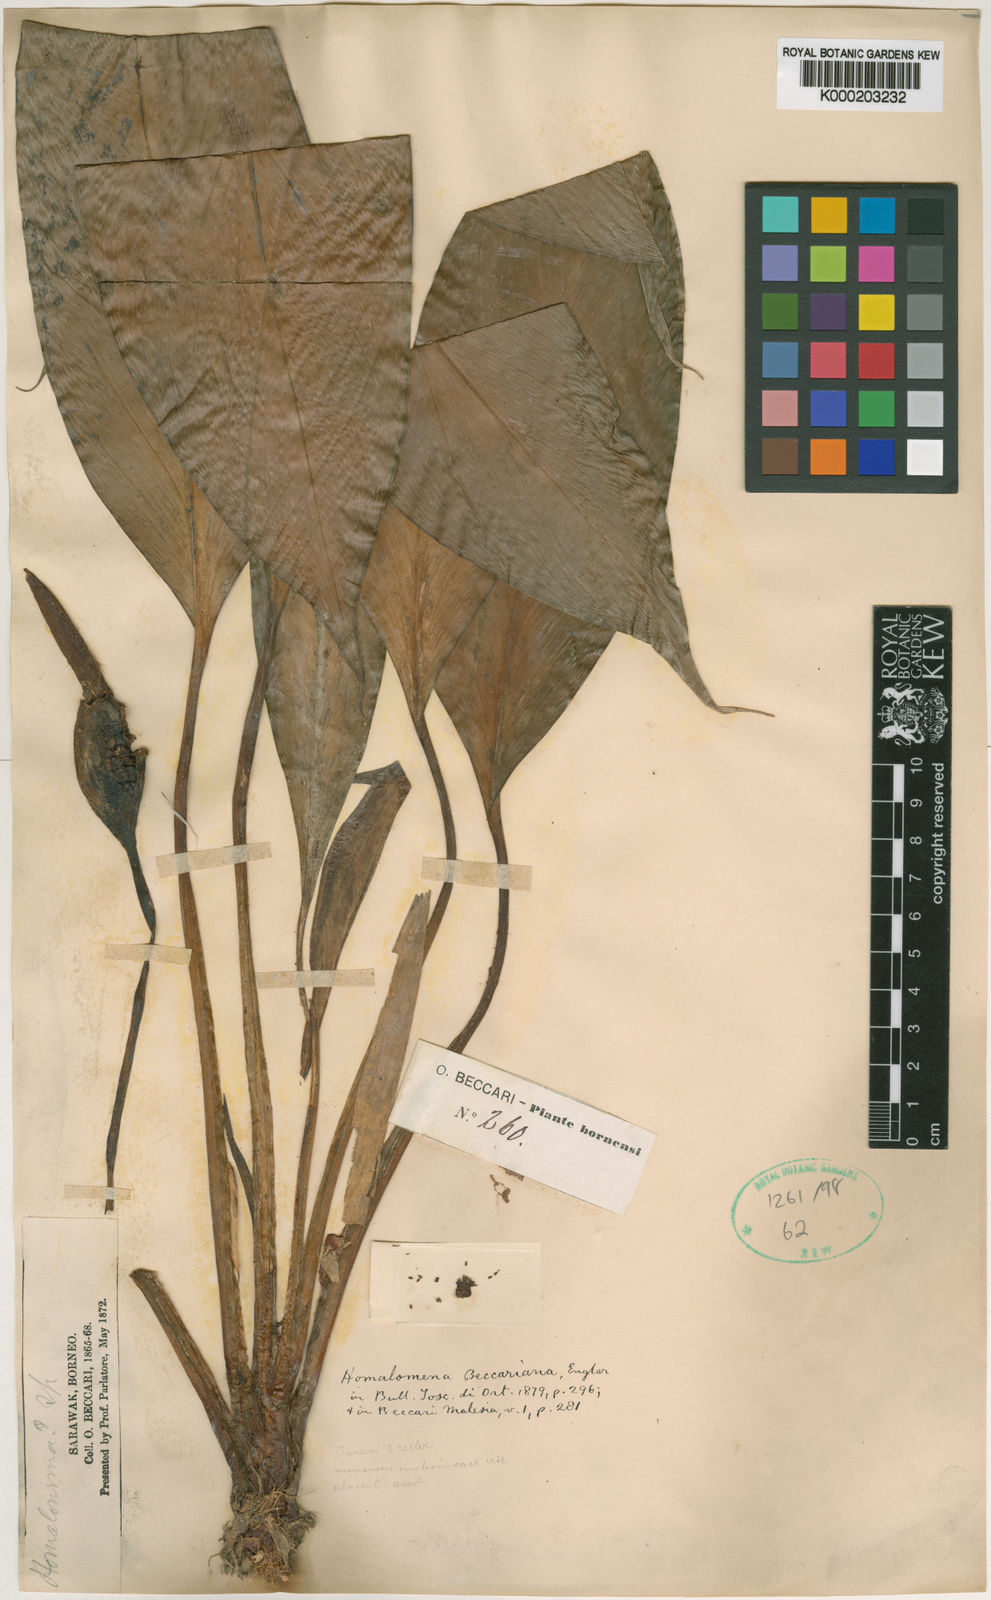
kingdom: Plantae
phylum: Tracheophyta
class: Liliopsida
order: Alismatales
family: Araceae
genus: Homalomena
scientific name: Homalomena rostrata
